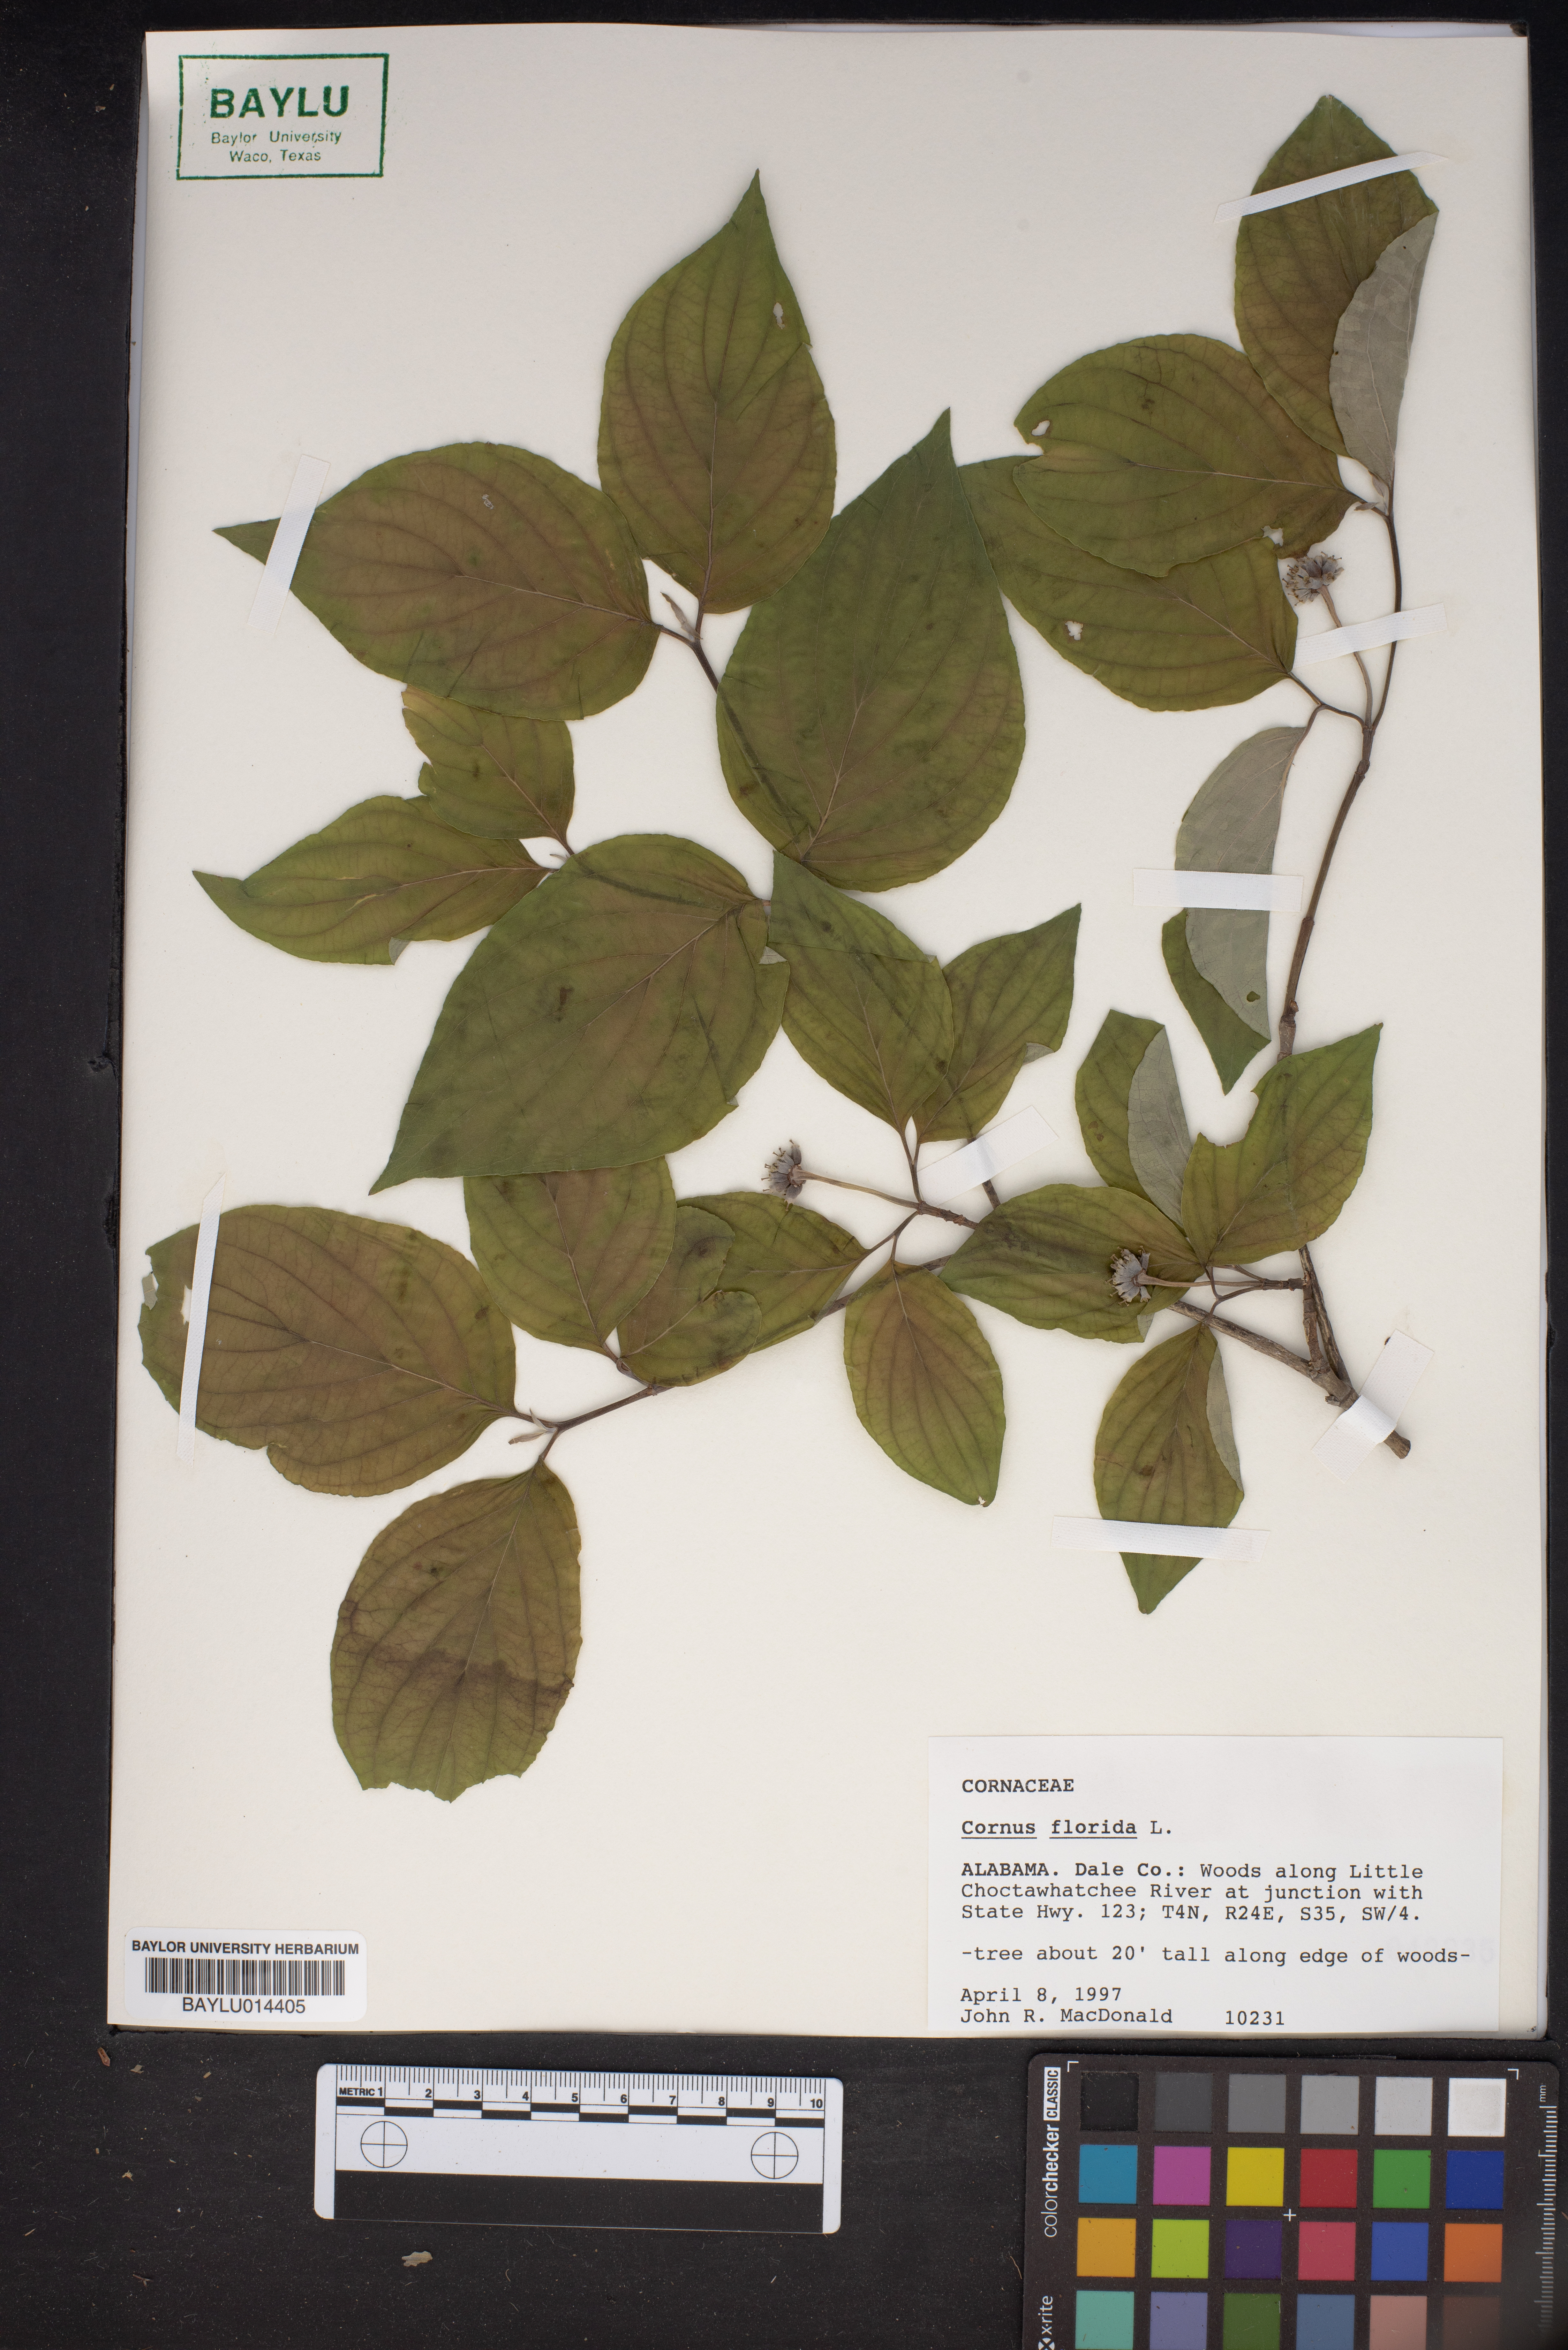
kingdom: Plantae
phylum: Tracheophyta
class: Magnoliopsida
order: Cornales
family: Cornaceae
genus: Cornus
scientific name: Cornus florida
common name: Flowering dogwood
